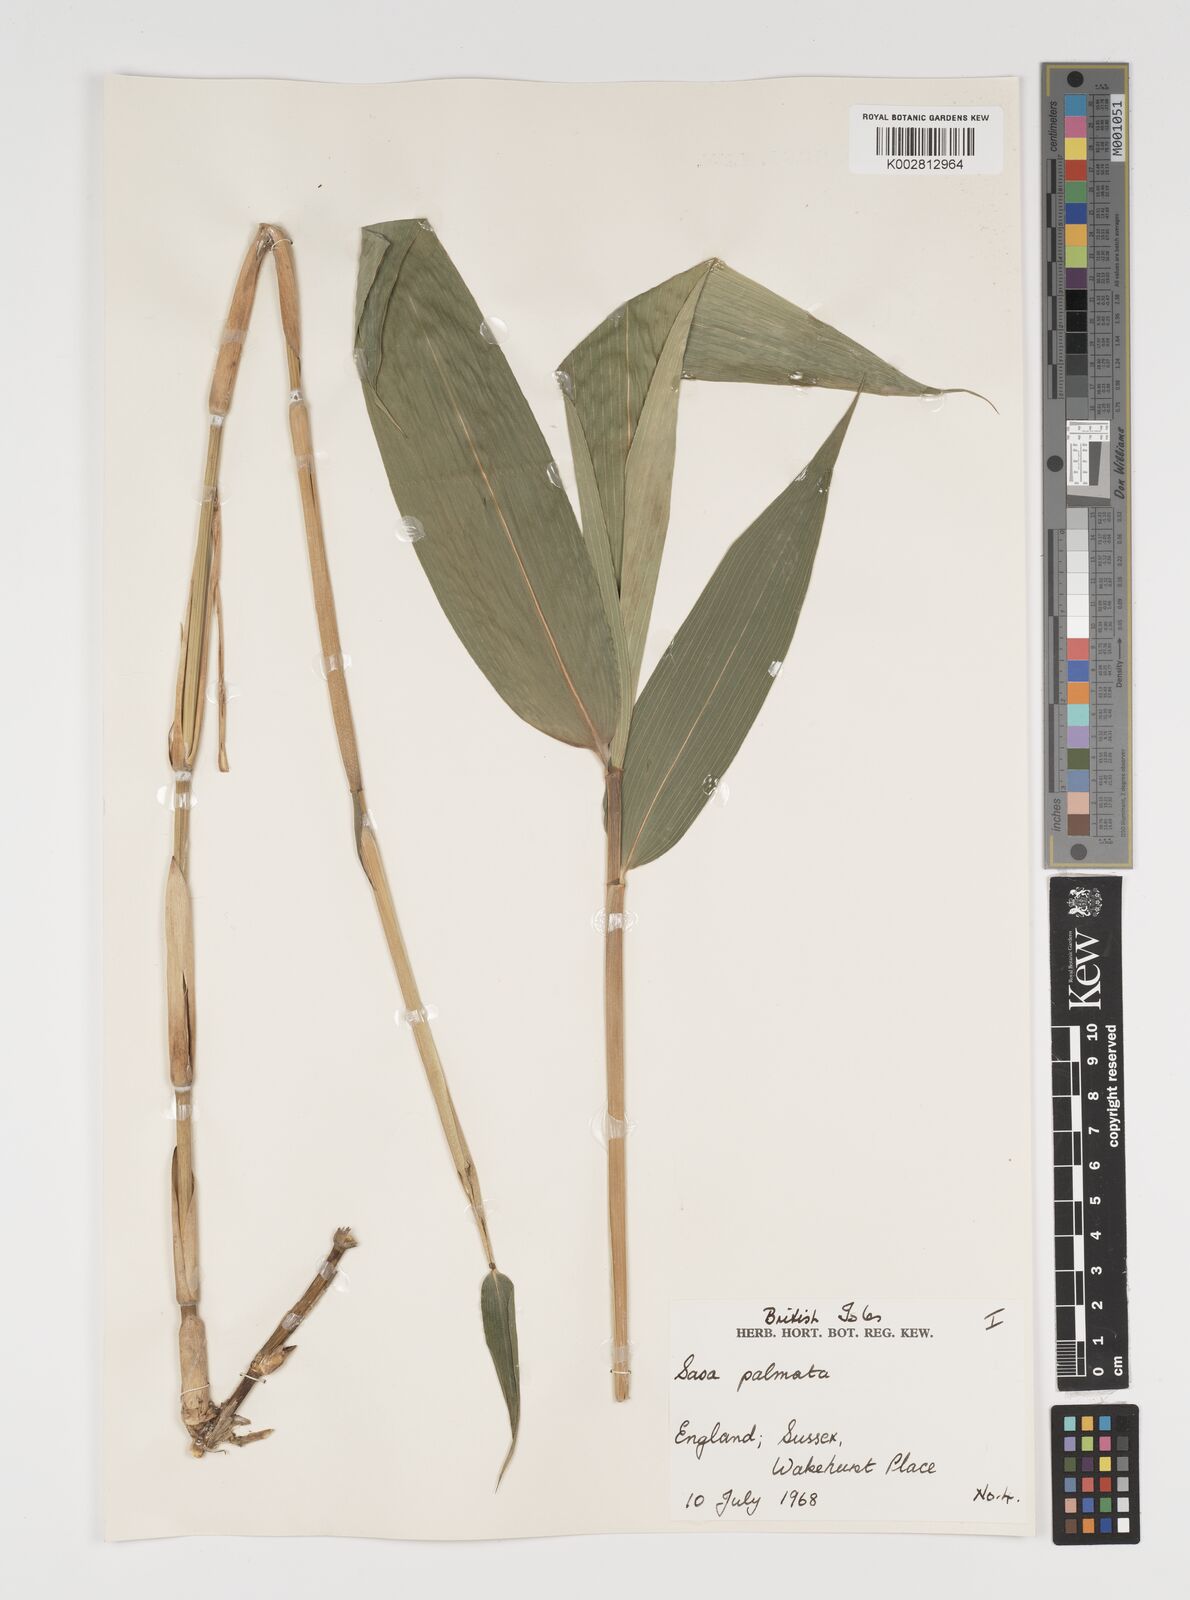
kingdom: Plantae
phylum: Tracheophyta
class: Liliopsida
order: Poales
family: Poaceae
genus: Sasa
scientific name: Sasa palmata
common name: Broad-leaved bamboo
